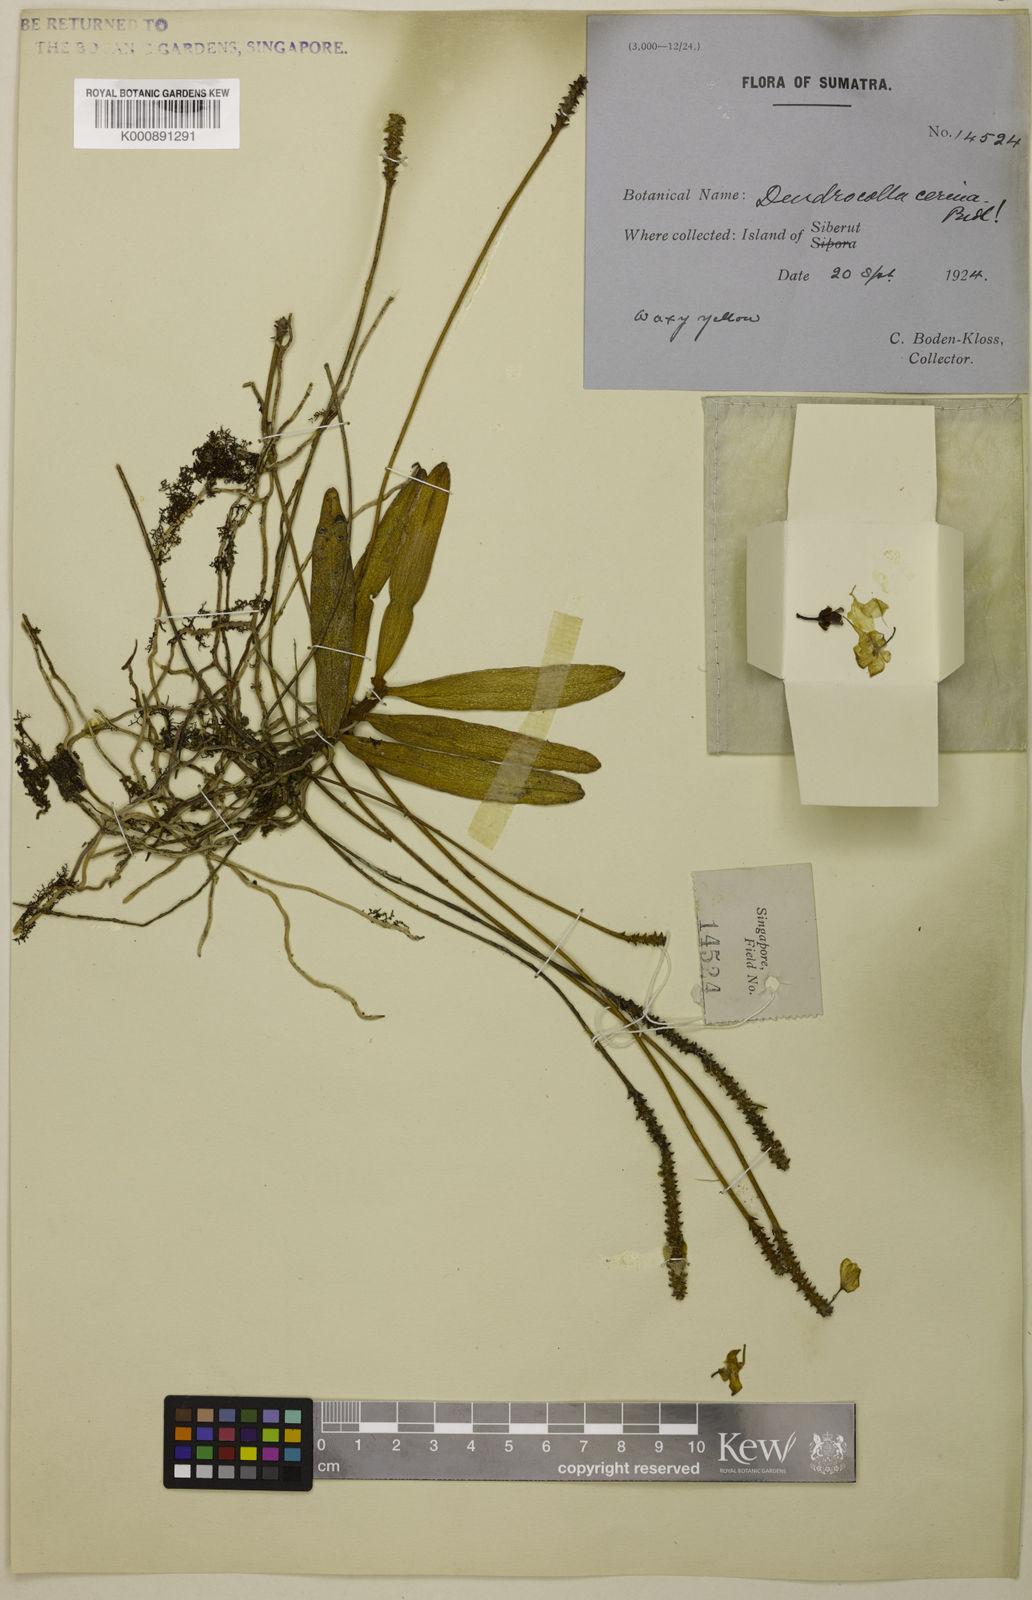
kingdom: Plantae
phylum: Tracheophyta
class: Liliopsida
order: Asparagales
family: Orchidaceae
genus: Thrixspermum
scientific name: Thrixspermum cerinum
